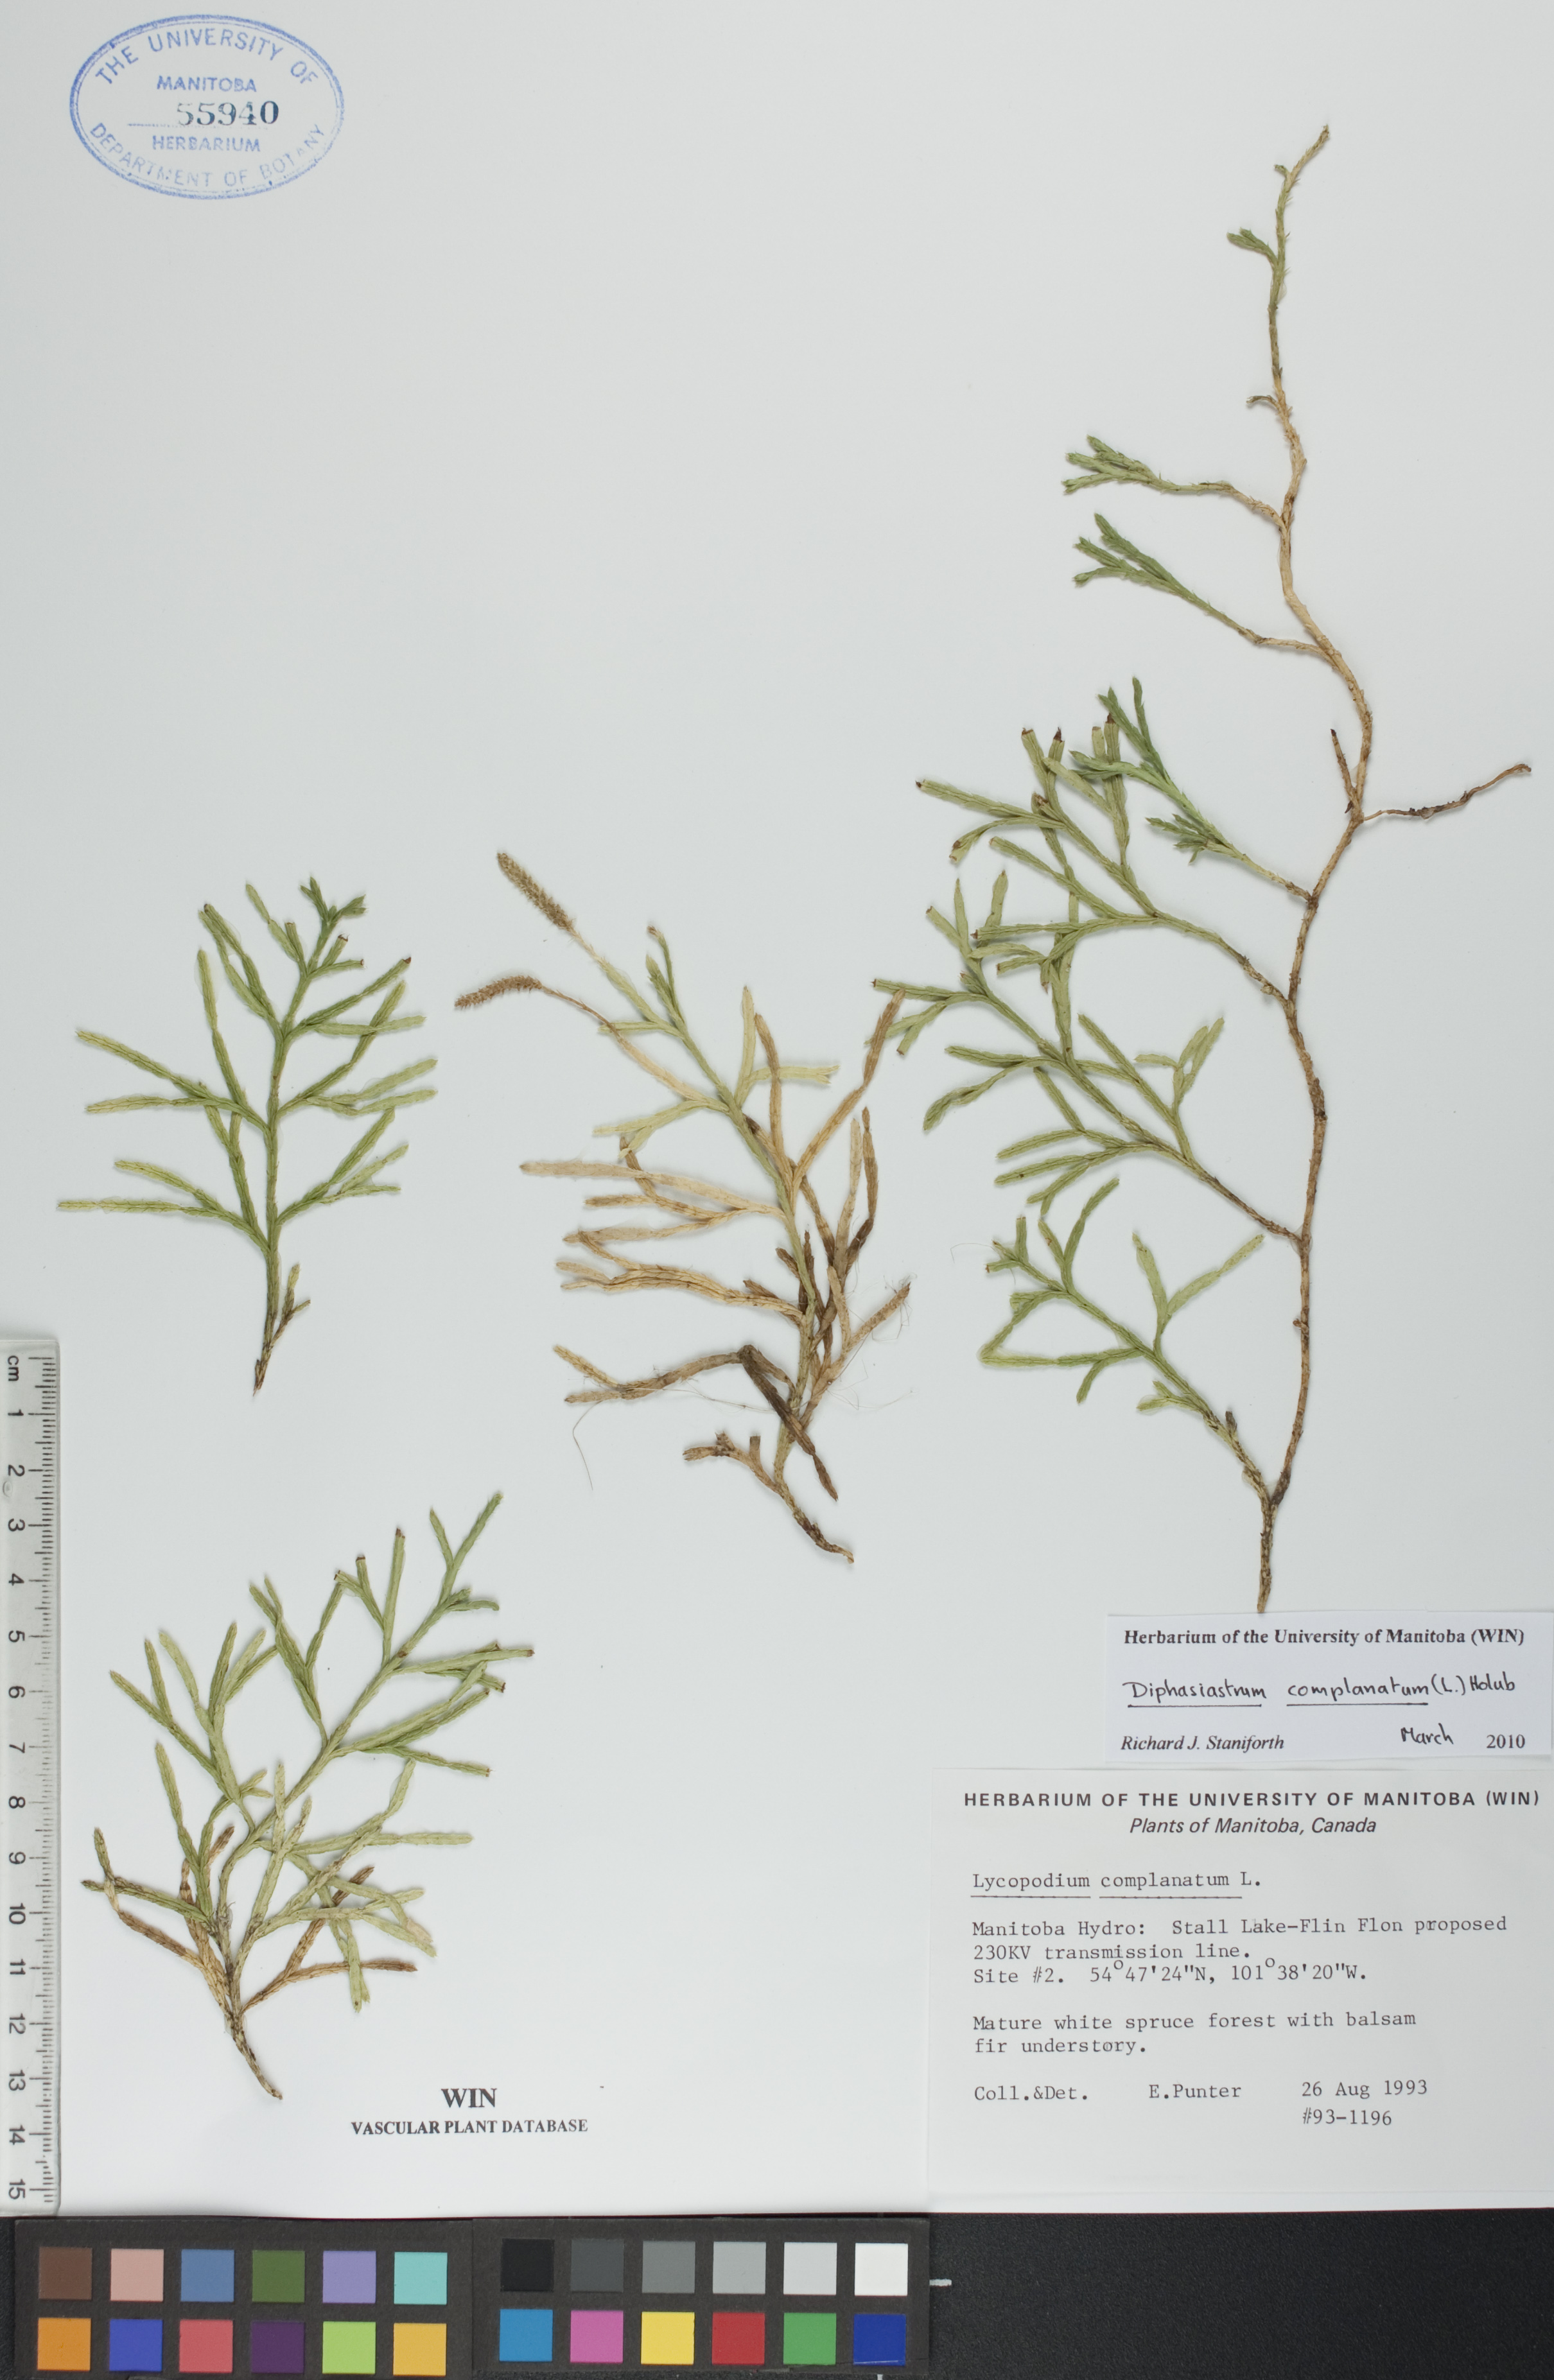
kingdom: Plantae
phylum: Tracheophyta
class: Lycopodiopsida
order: Lycopodiales
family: Lycopodiaceae
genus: Diphasiastrum
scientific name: Diphasiastrum complanatum
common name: Northern running-pine
